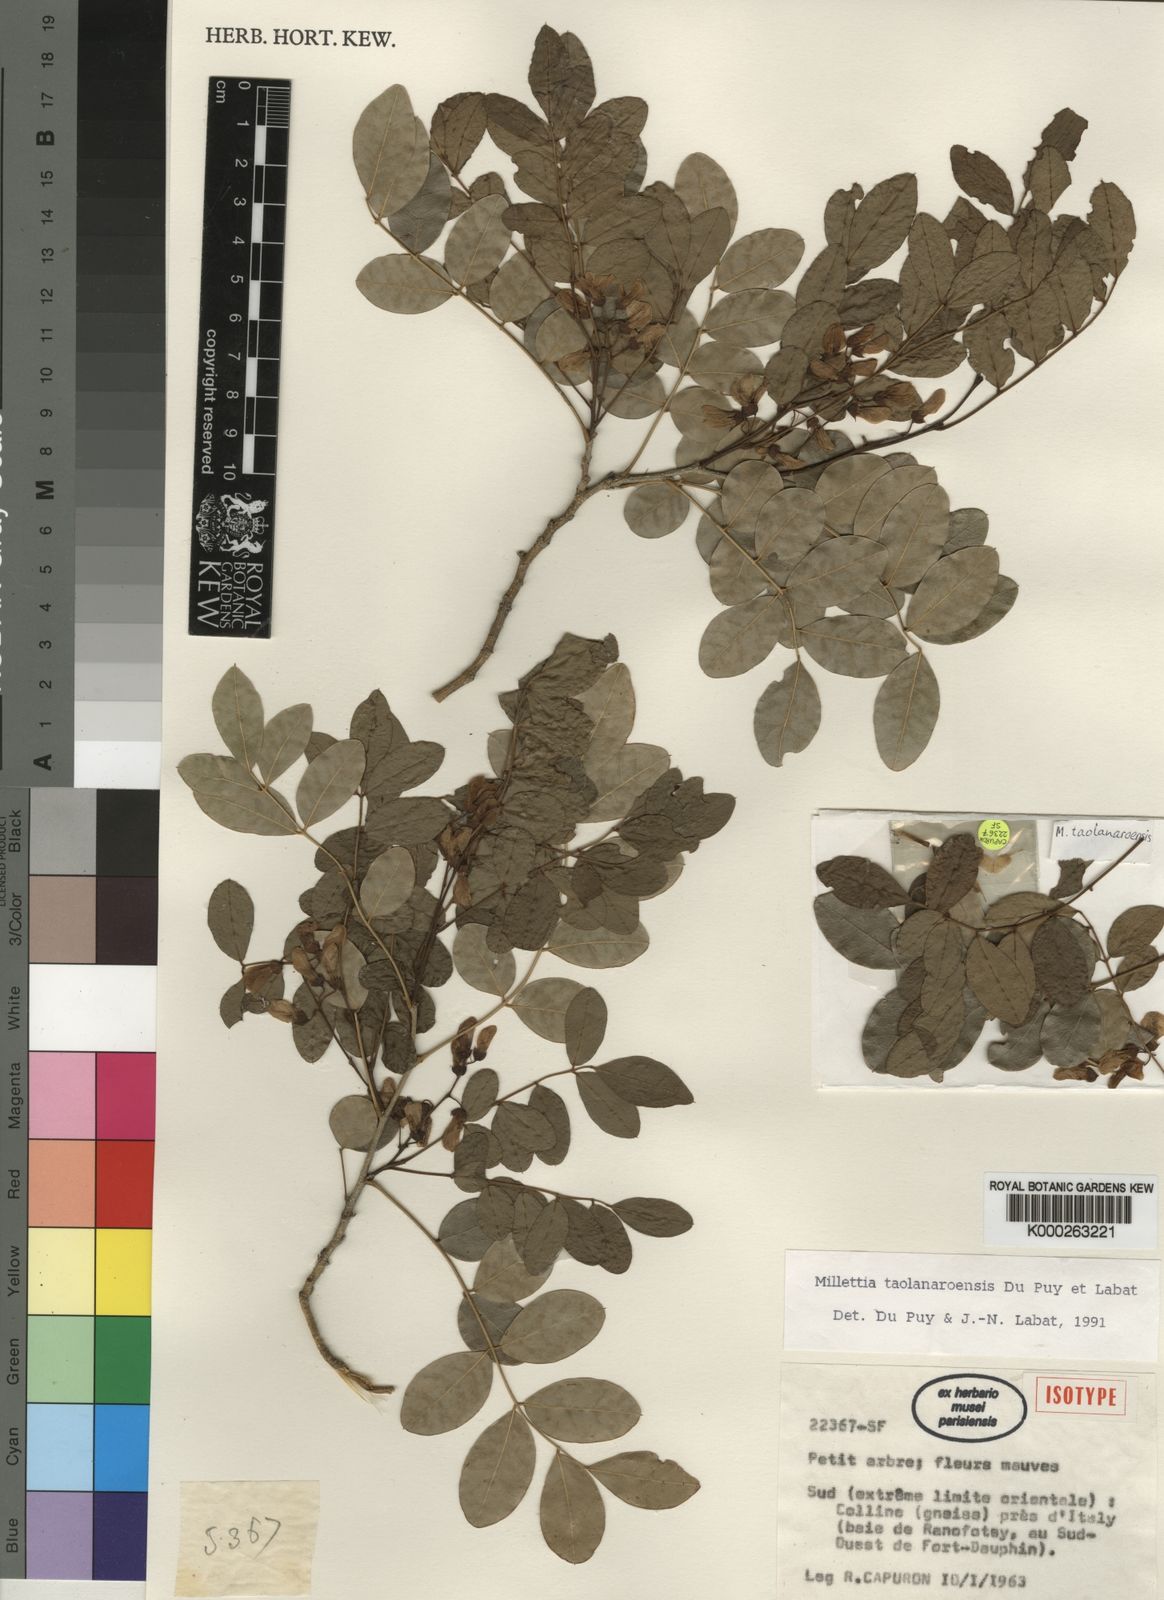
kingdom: Plantae
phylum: Tracheophyta
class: Magnoliopsida
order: Fabales
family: Fabaceae
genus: Millettia
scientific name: Millettia taolanaroensis
